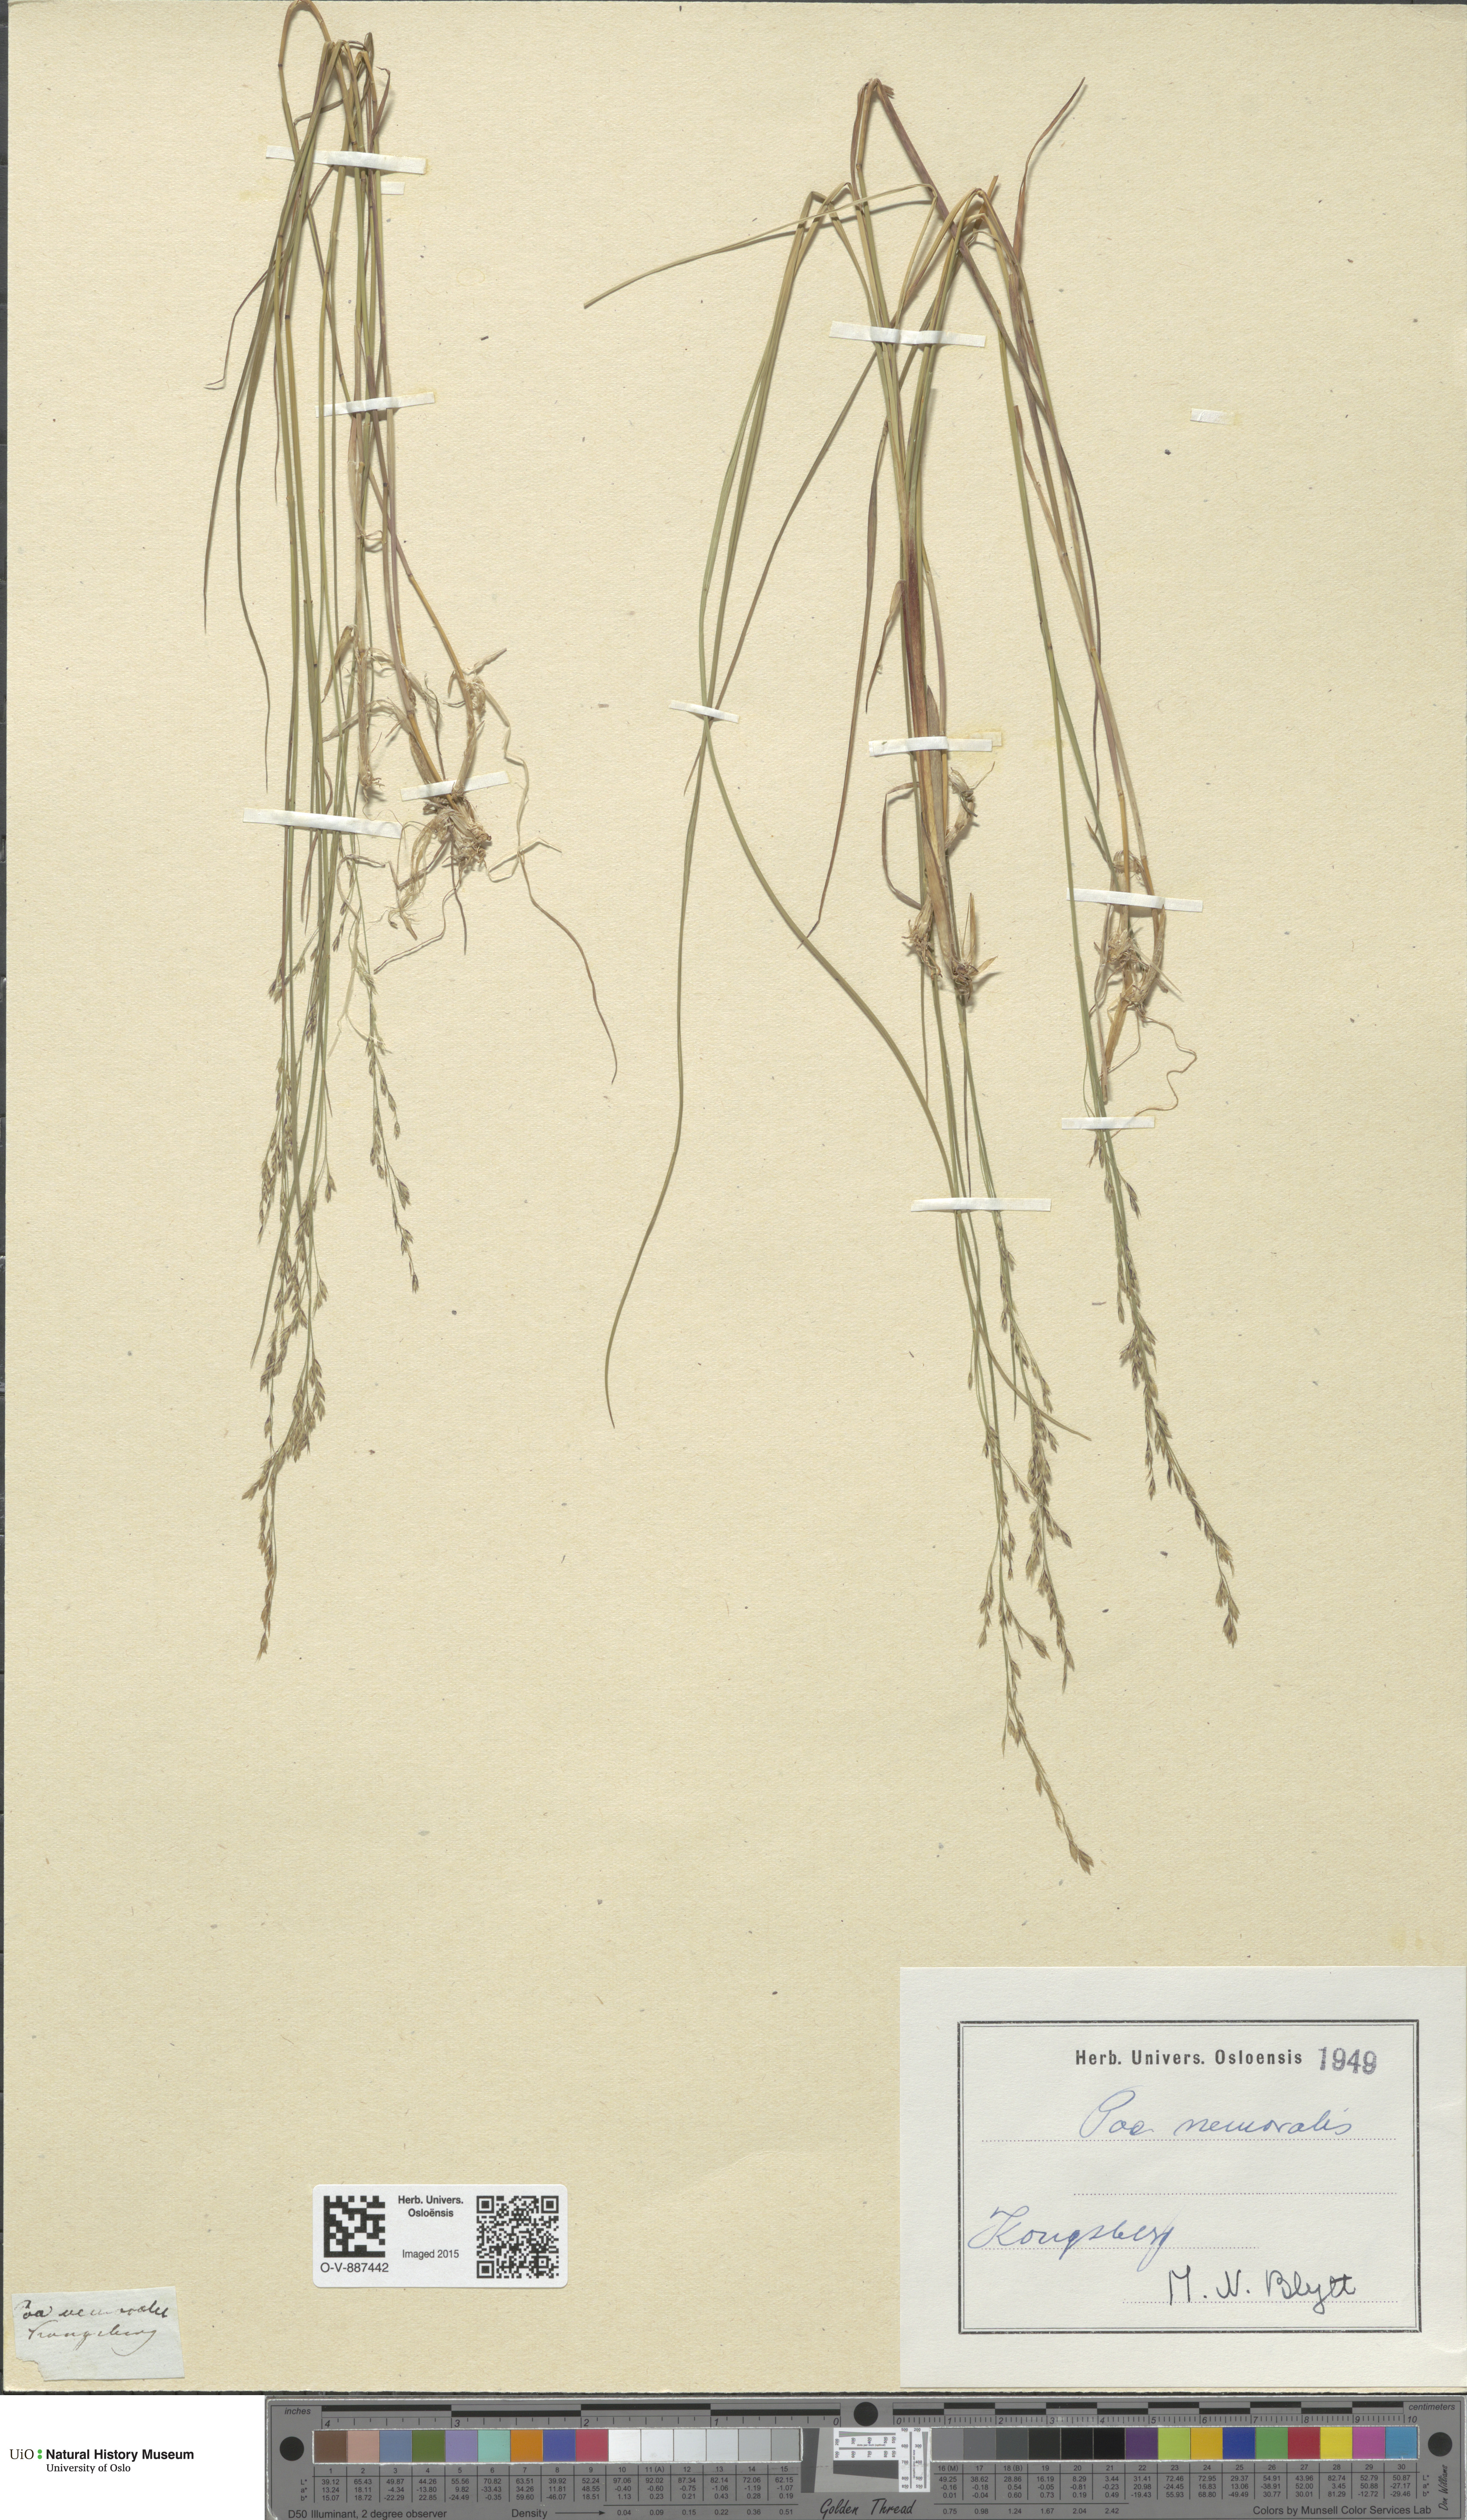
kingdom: Plantae
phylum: Tracheophyta
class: Liliopsida
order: Poales
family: Poaceae
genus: Poa
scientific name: Poa nemoralis
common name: Wood bluegrass
